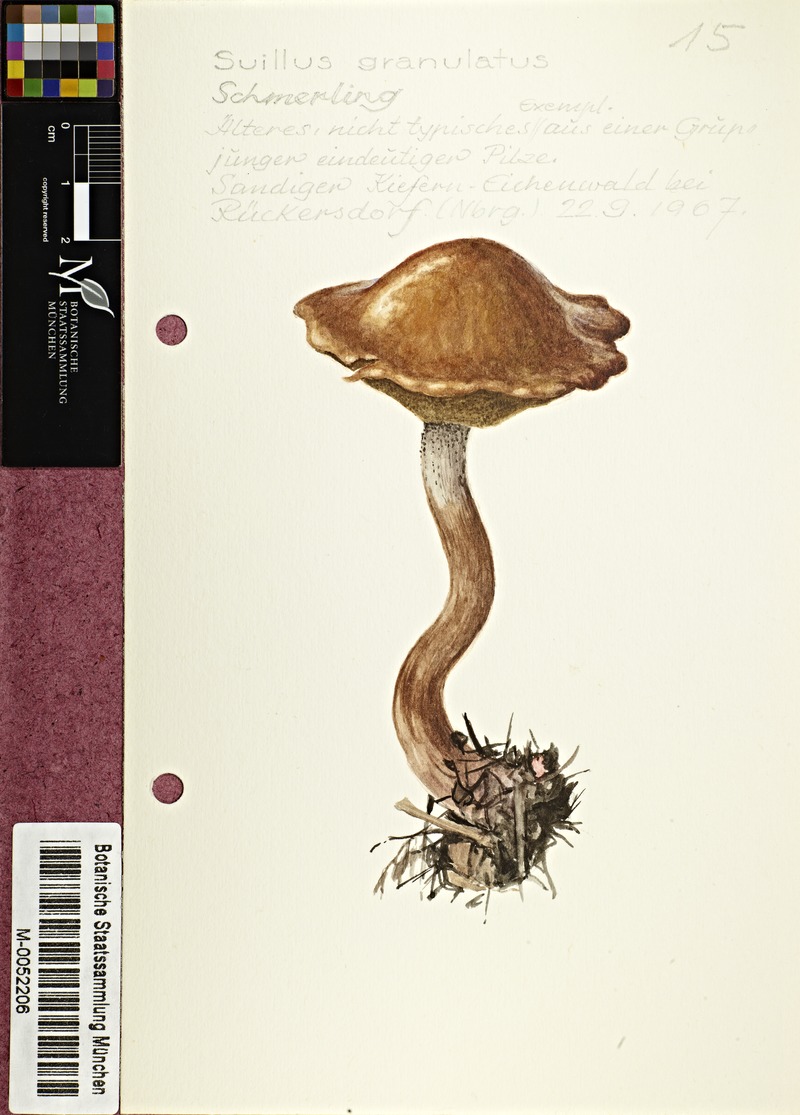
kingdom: Fungi
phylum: Basidiomycota
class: Agaricomycetes
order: Boletales
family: Suillaceae
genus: Suillus
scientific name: Suillus granulatus
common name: Weeping bolete
